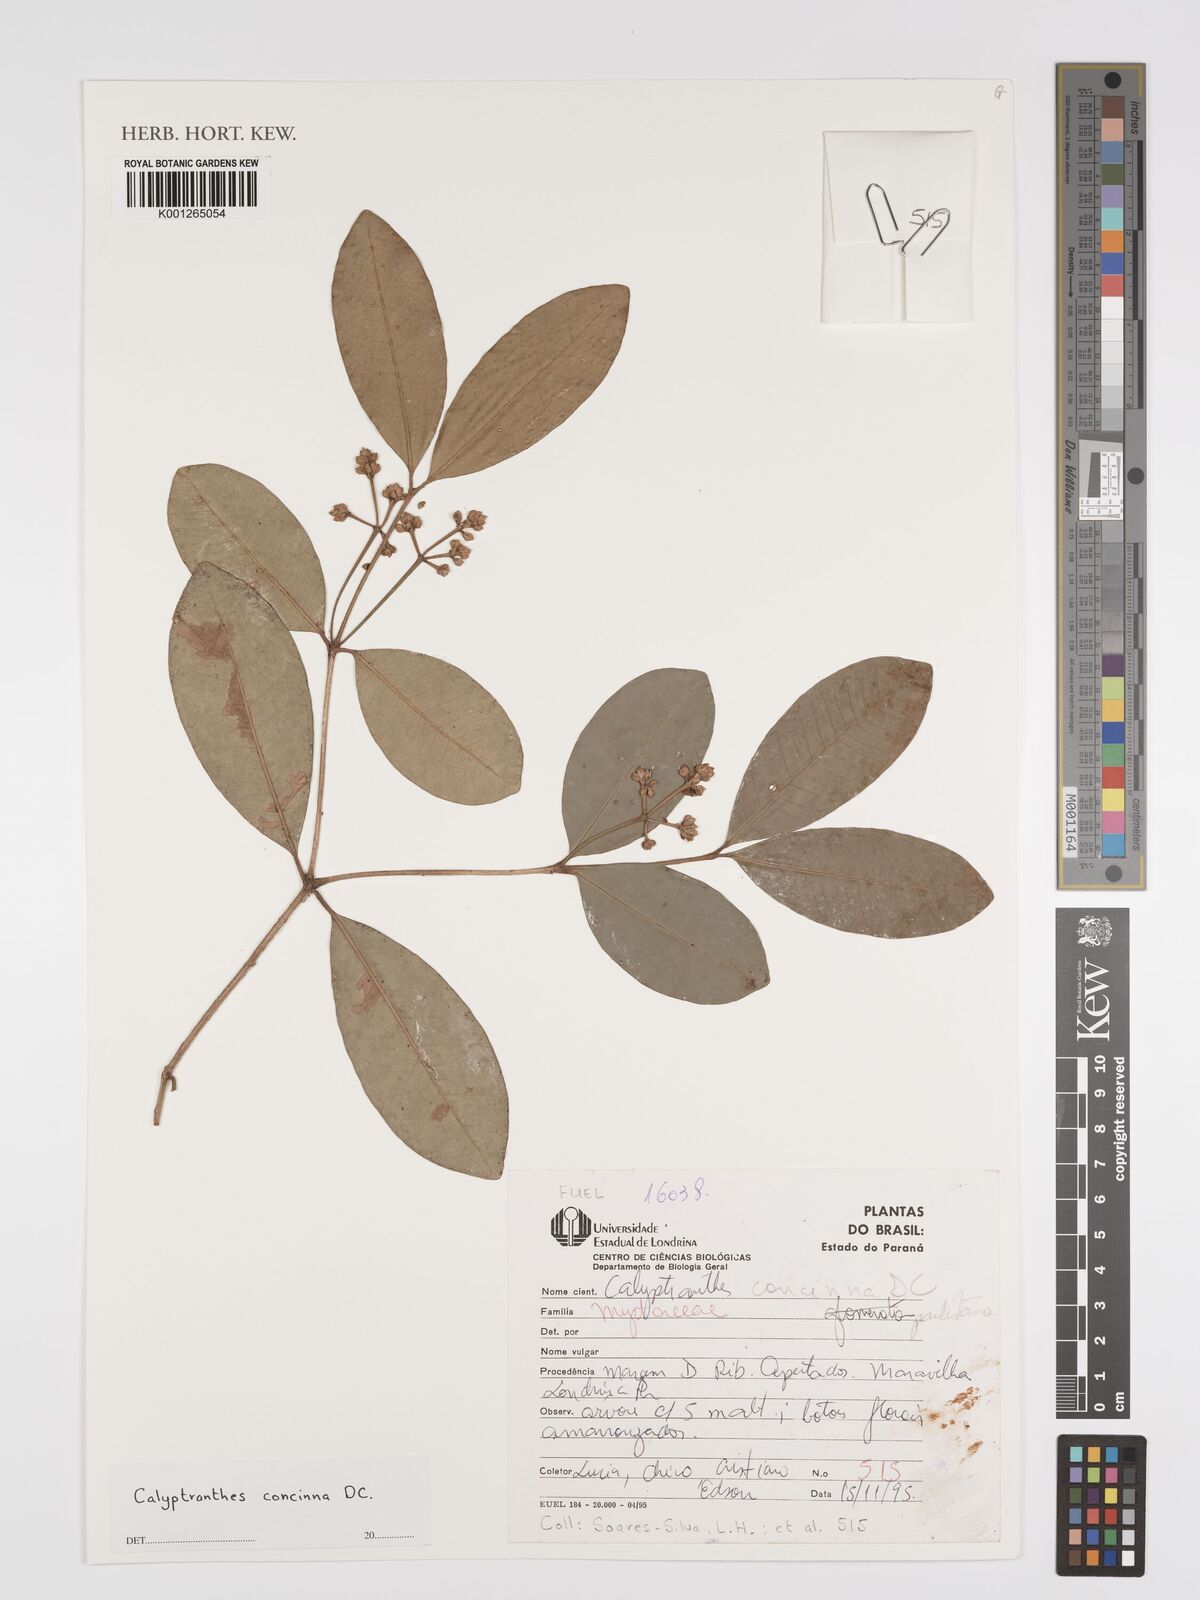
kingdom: Plantae
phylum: Tracheophyta
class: Magnoliopsida
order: Myrtales
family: Myrtaceae
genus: Myrcia
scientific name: Myrcia cruciflora
